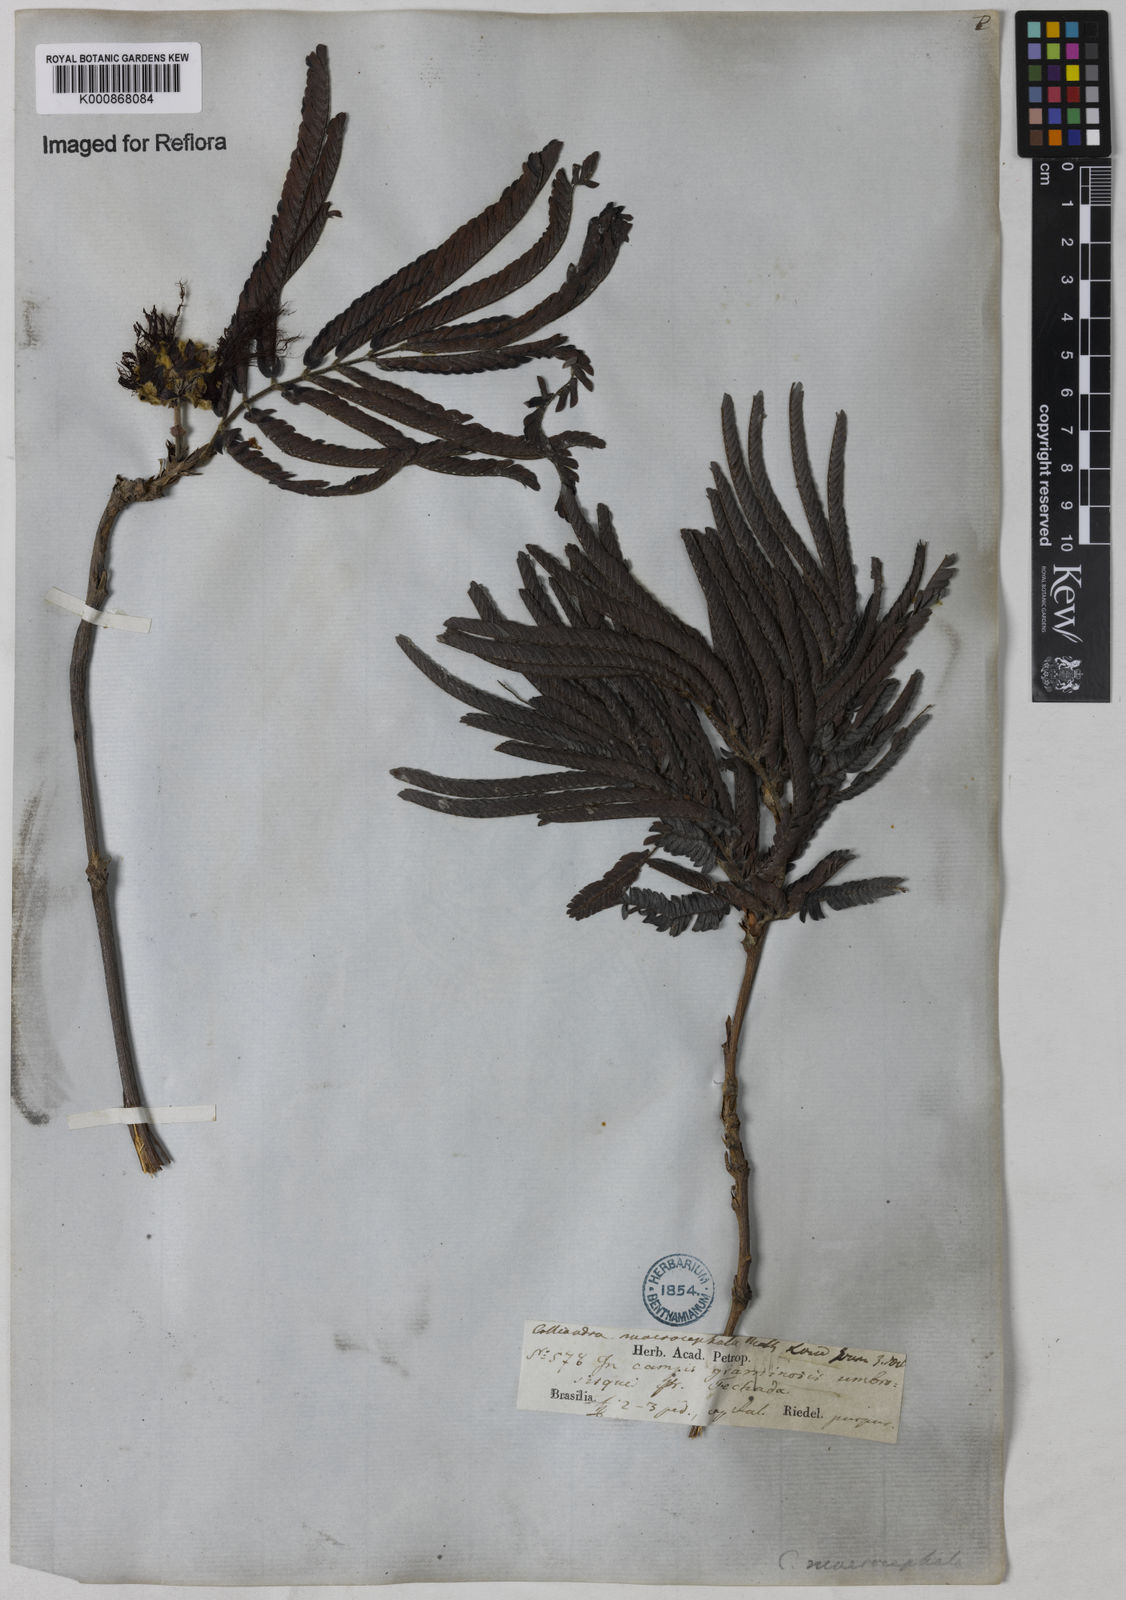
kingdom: Plantae
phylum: Tracheophyta
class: Magnoliopsida
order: Fabales
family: Fabaceae
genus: Calliandra
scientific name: Calliandra dysantha
